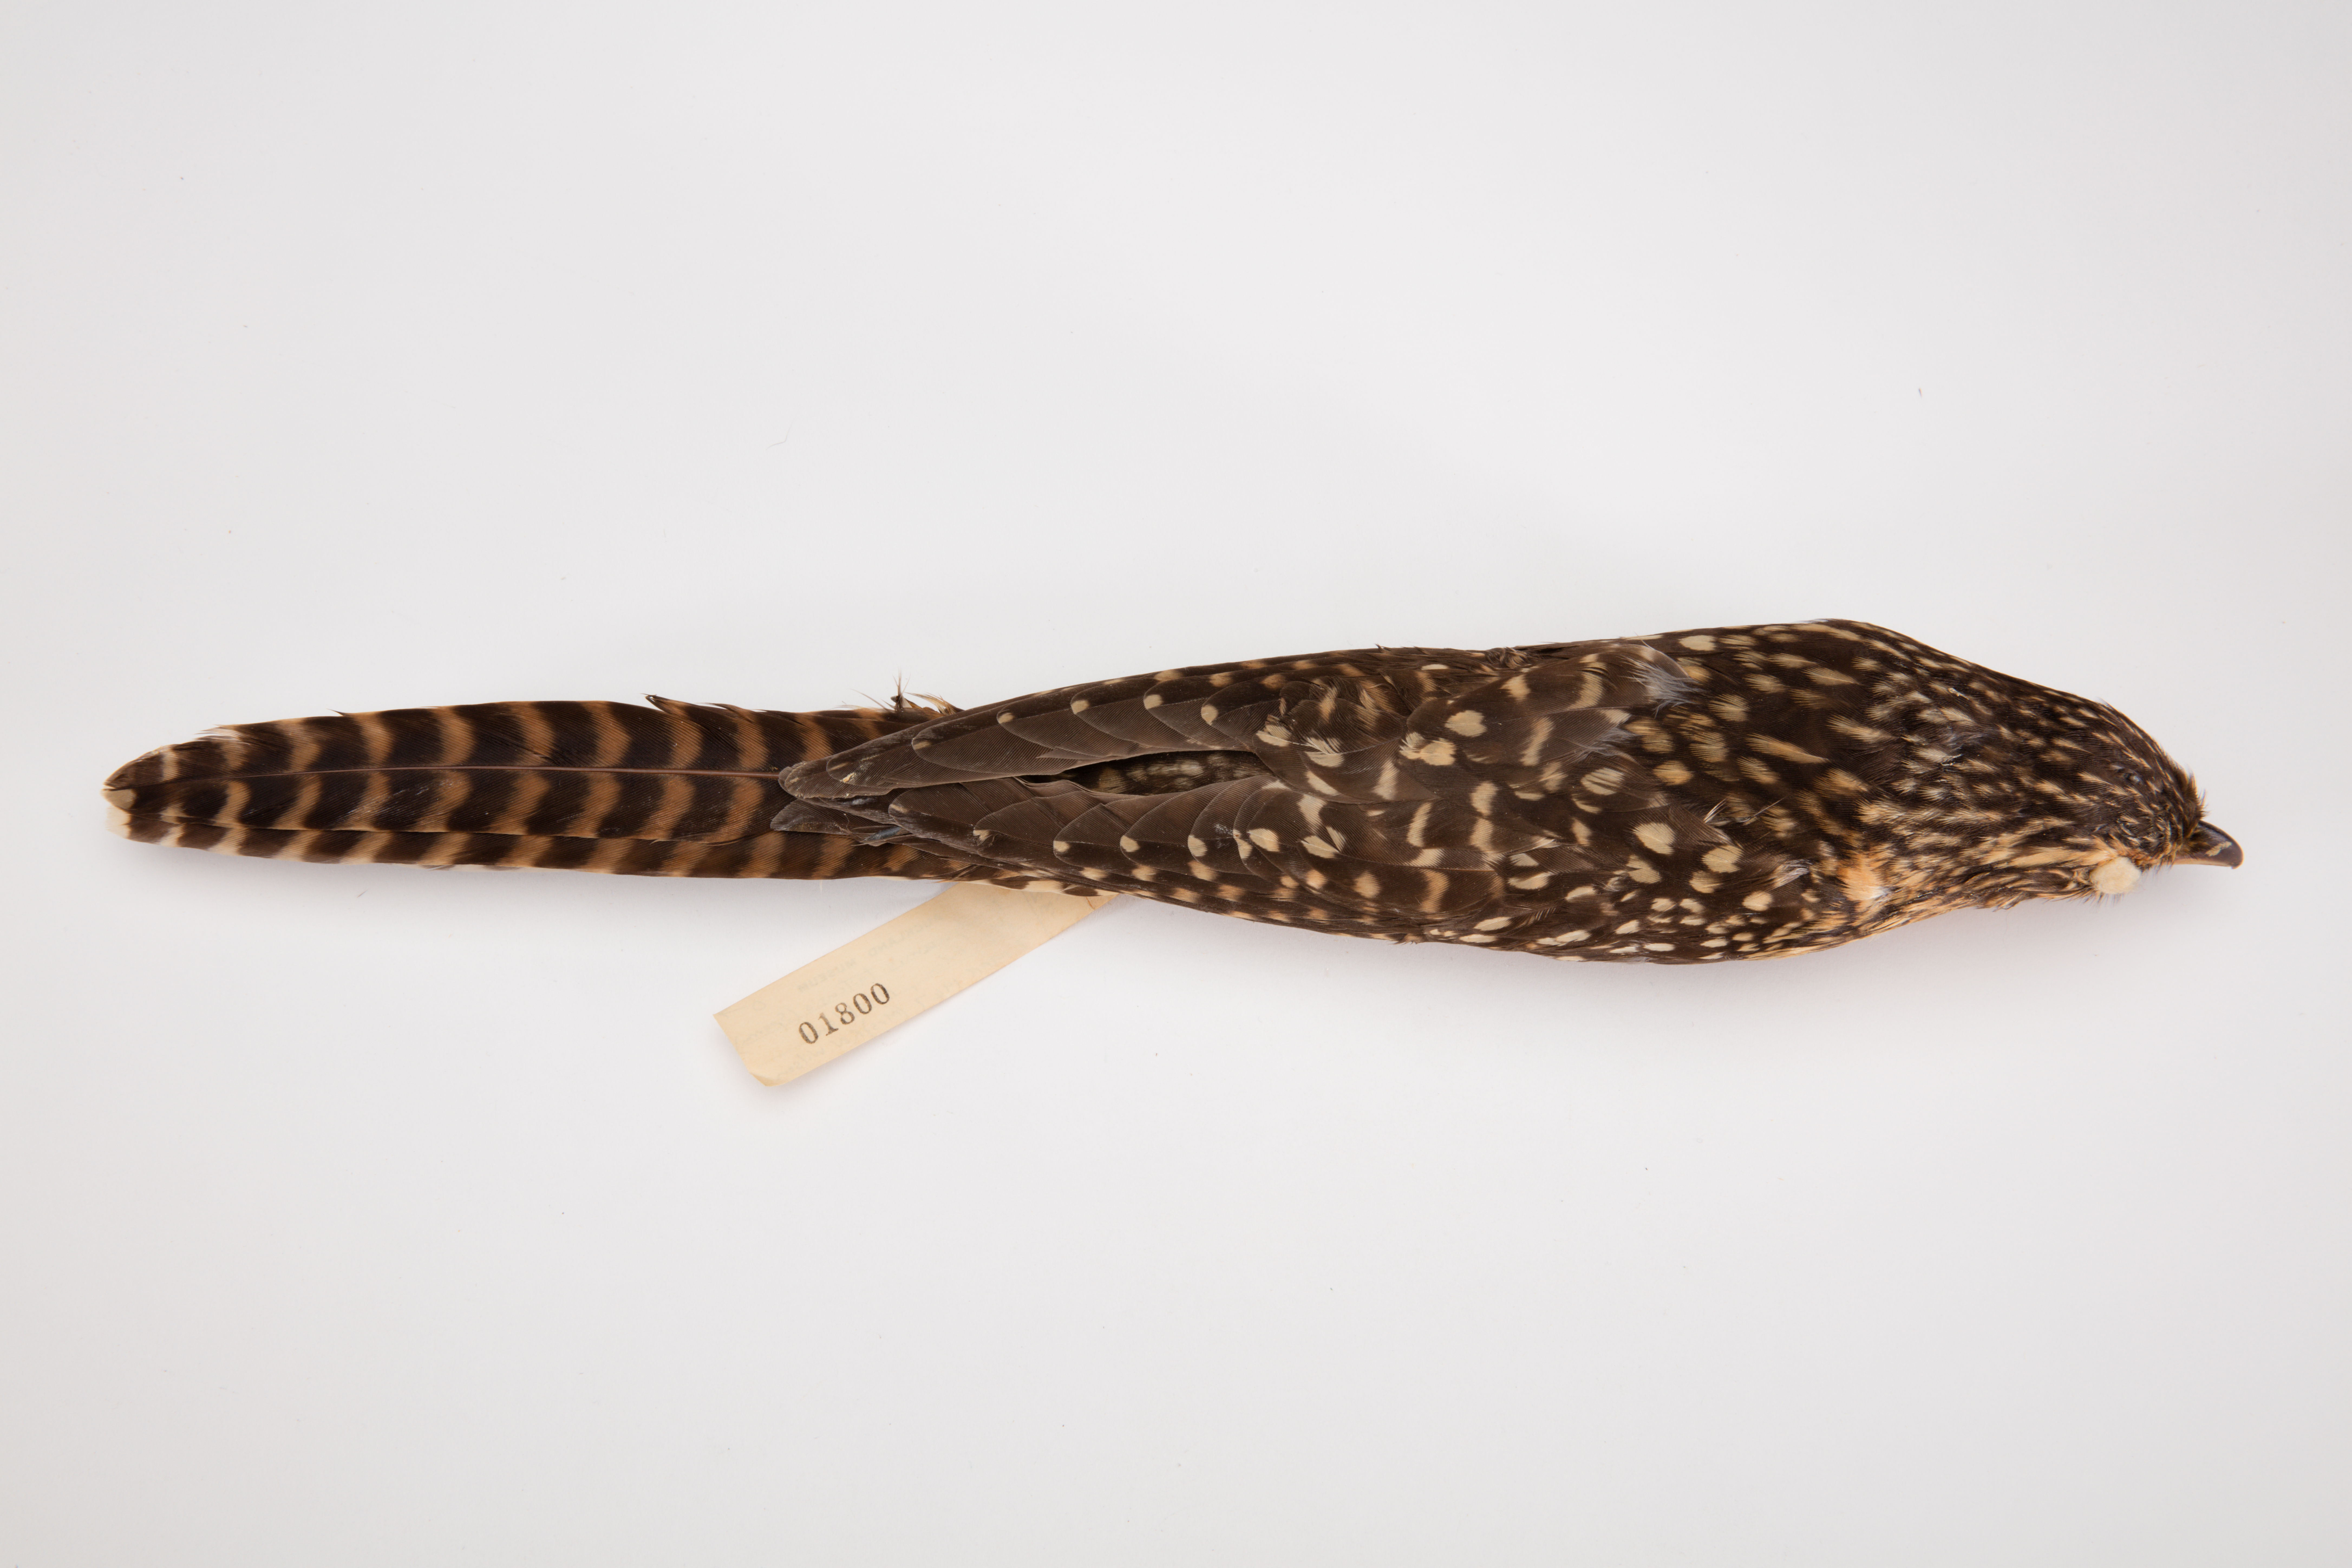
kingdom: Animalia
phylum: Chordata
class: Aves
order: Cuculiformes
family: Cuculidae
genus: Urodynamis
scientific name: Urodynamis taitensis
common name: Long-tailed koel
